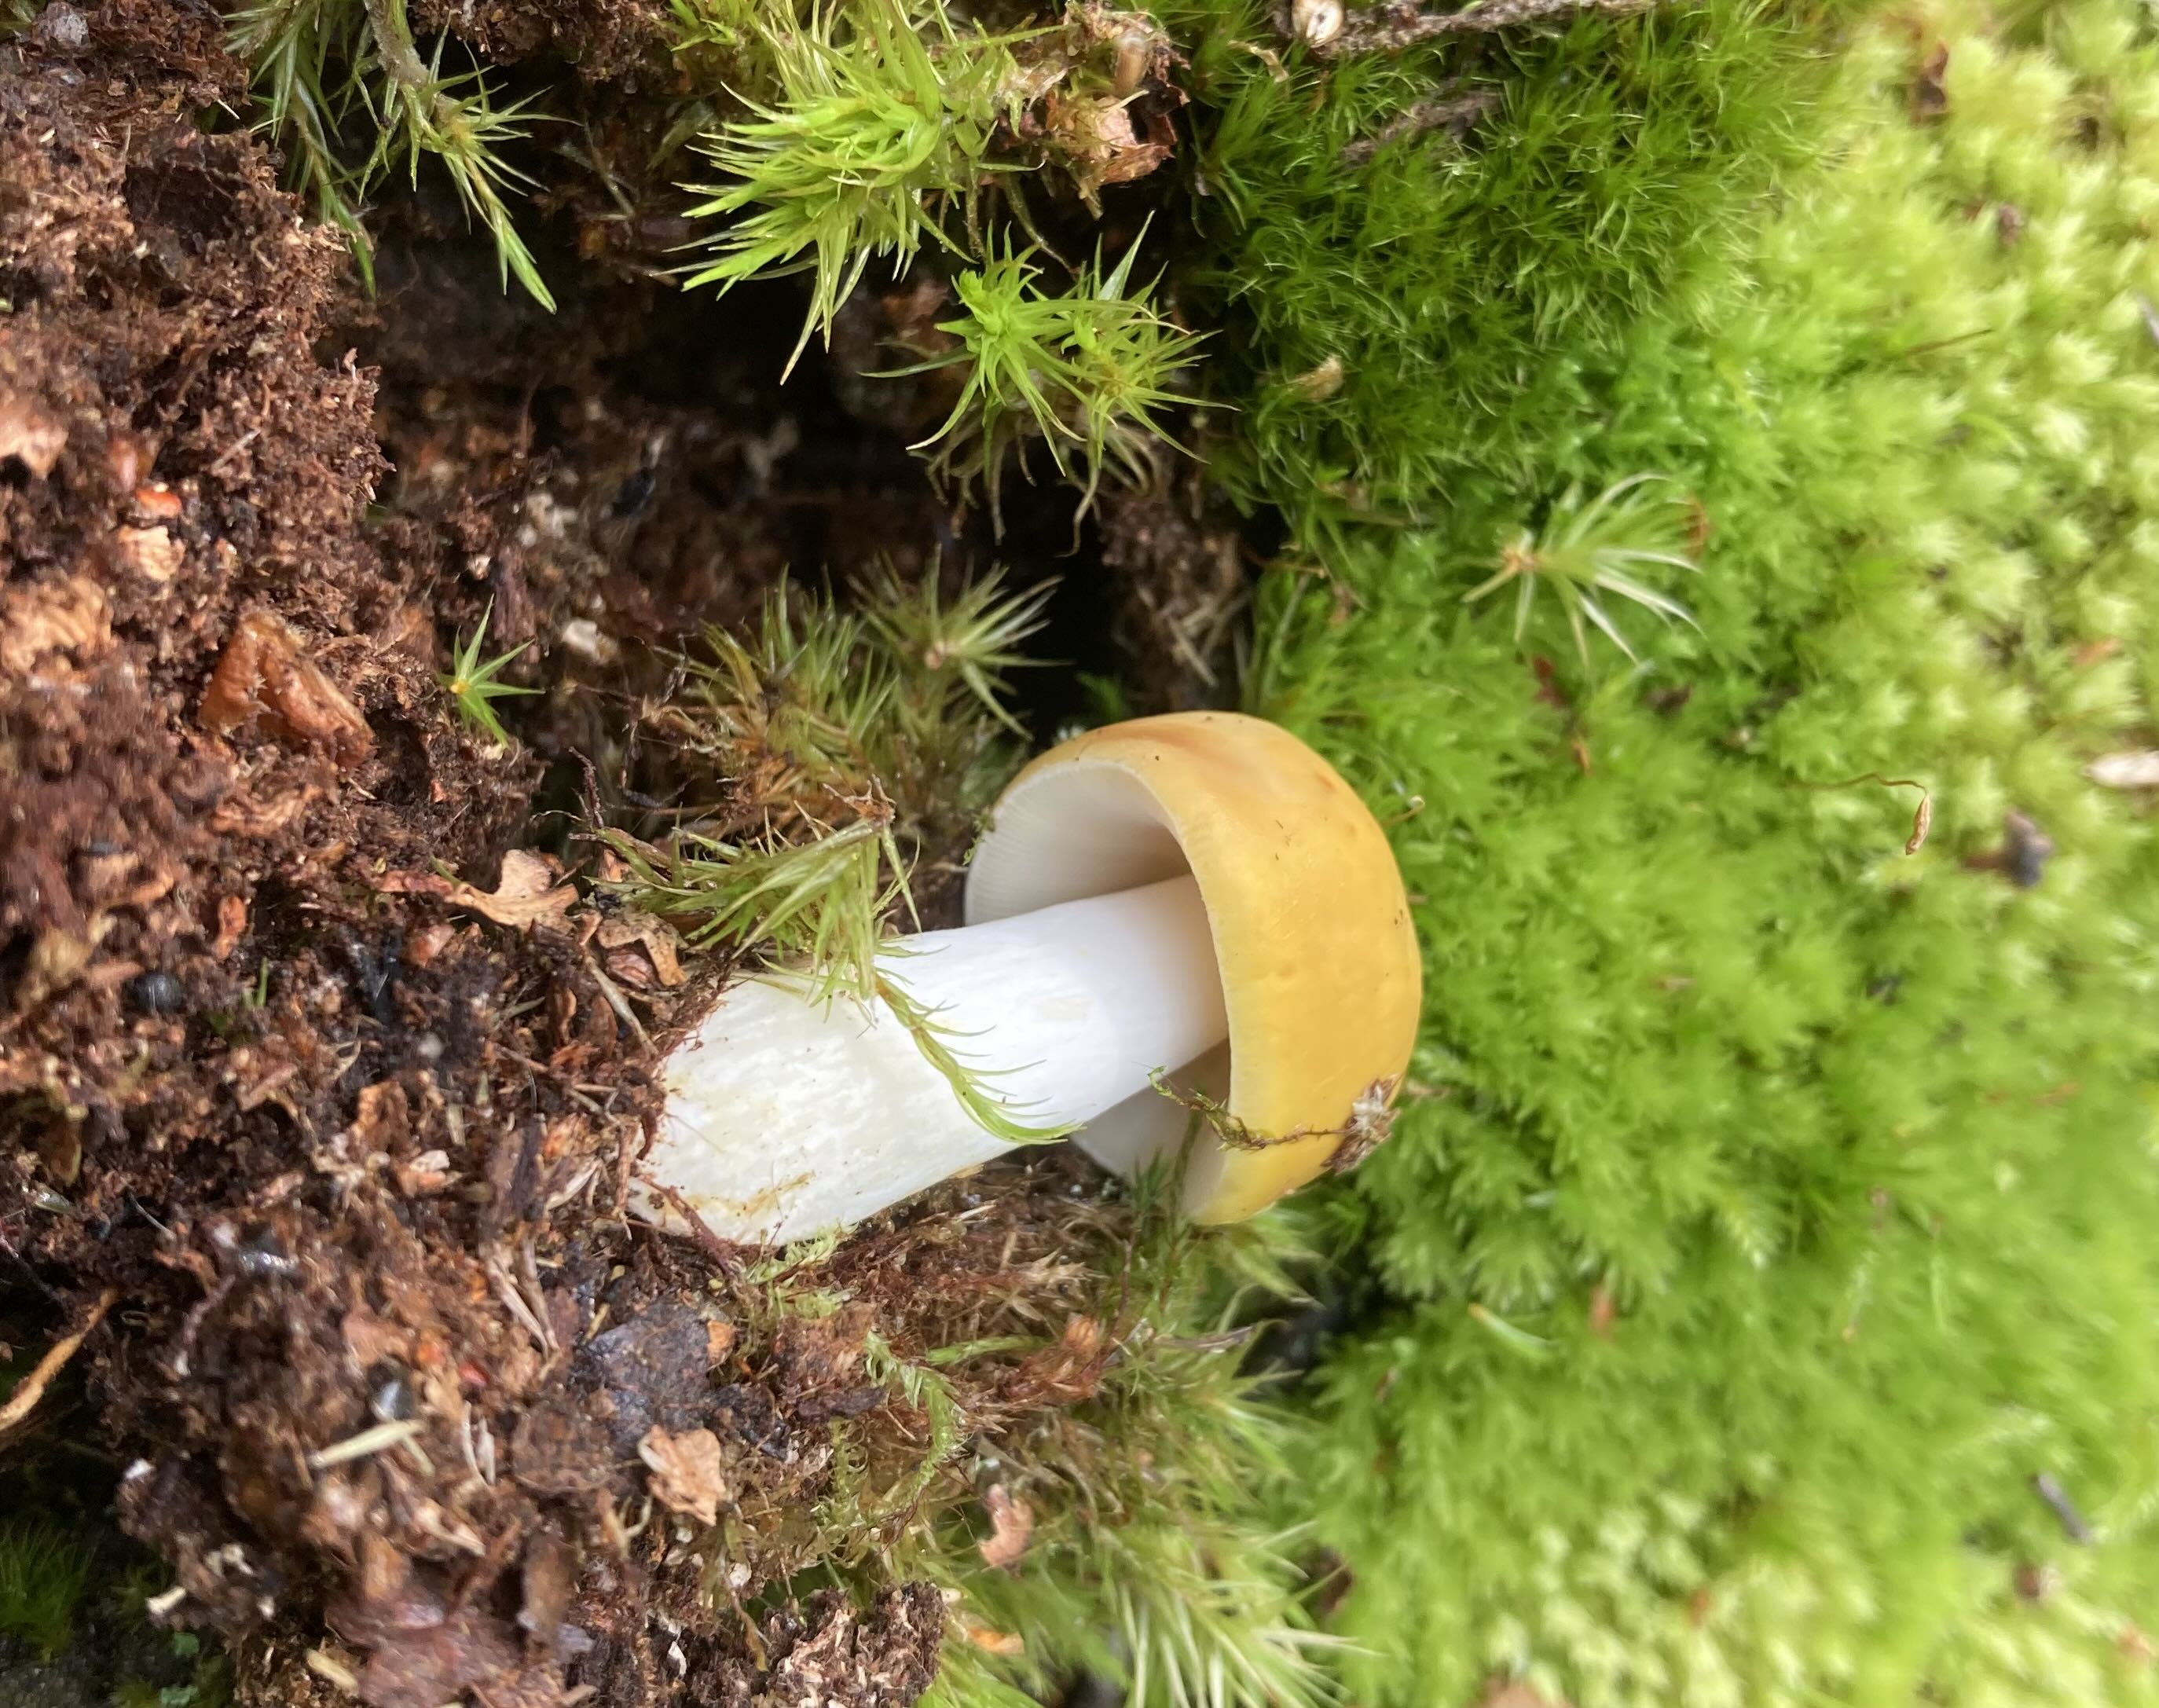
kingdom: Fungi
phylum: Basidiomycota
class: Agaricomycetes
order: Russulales
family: Russulaceae
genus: Russula
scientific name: Russula claroflava
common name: birke-skørhat
